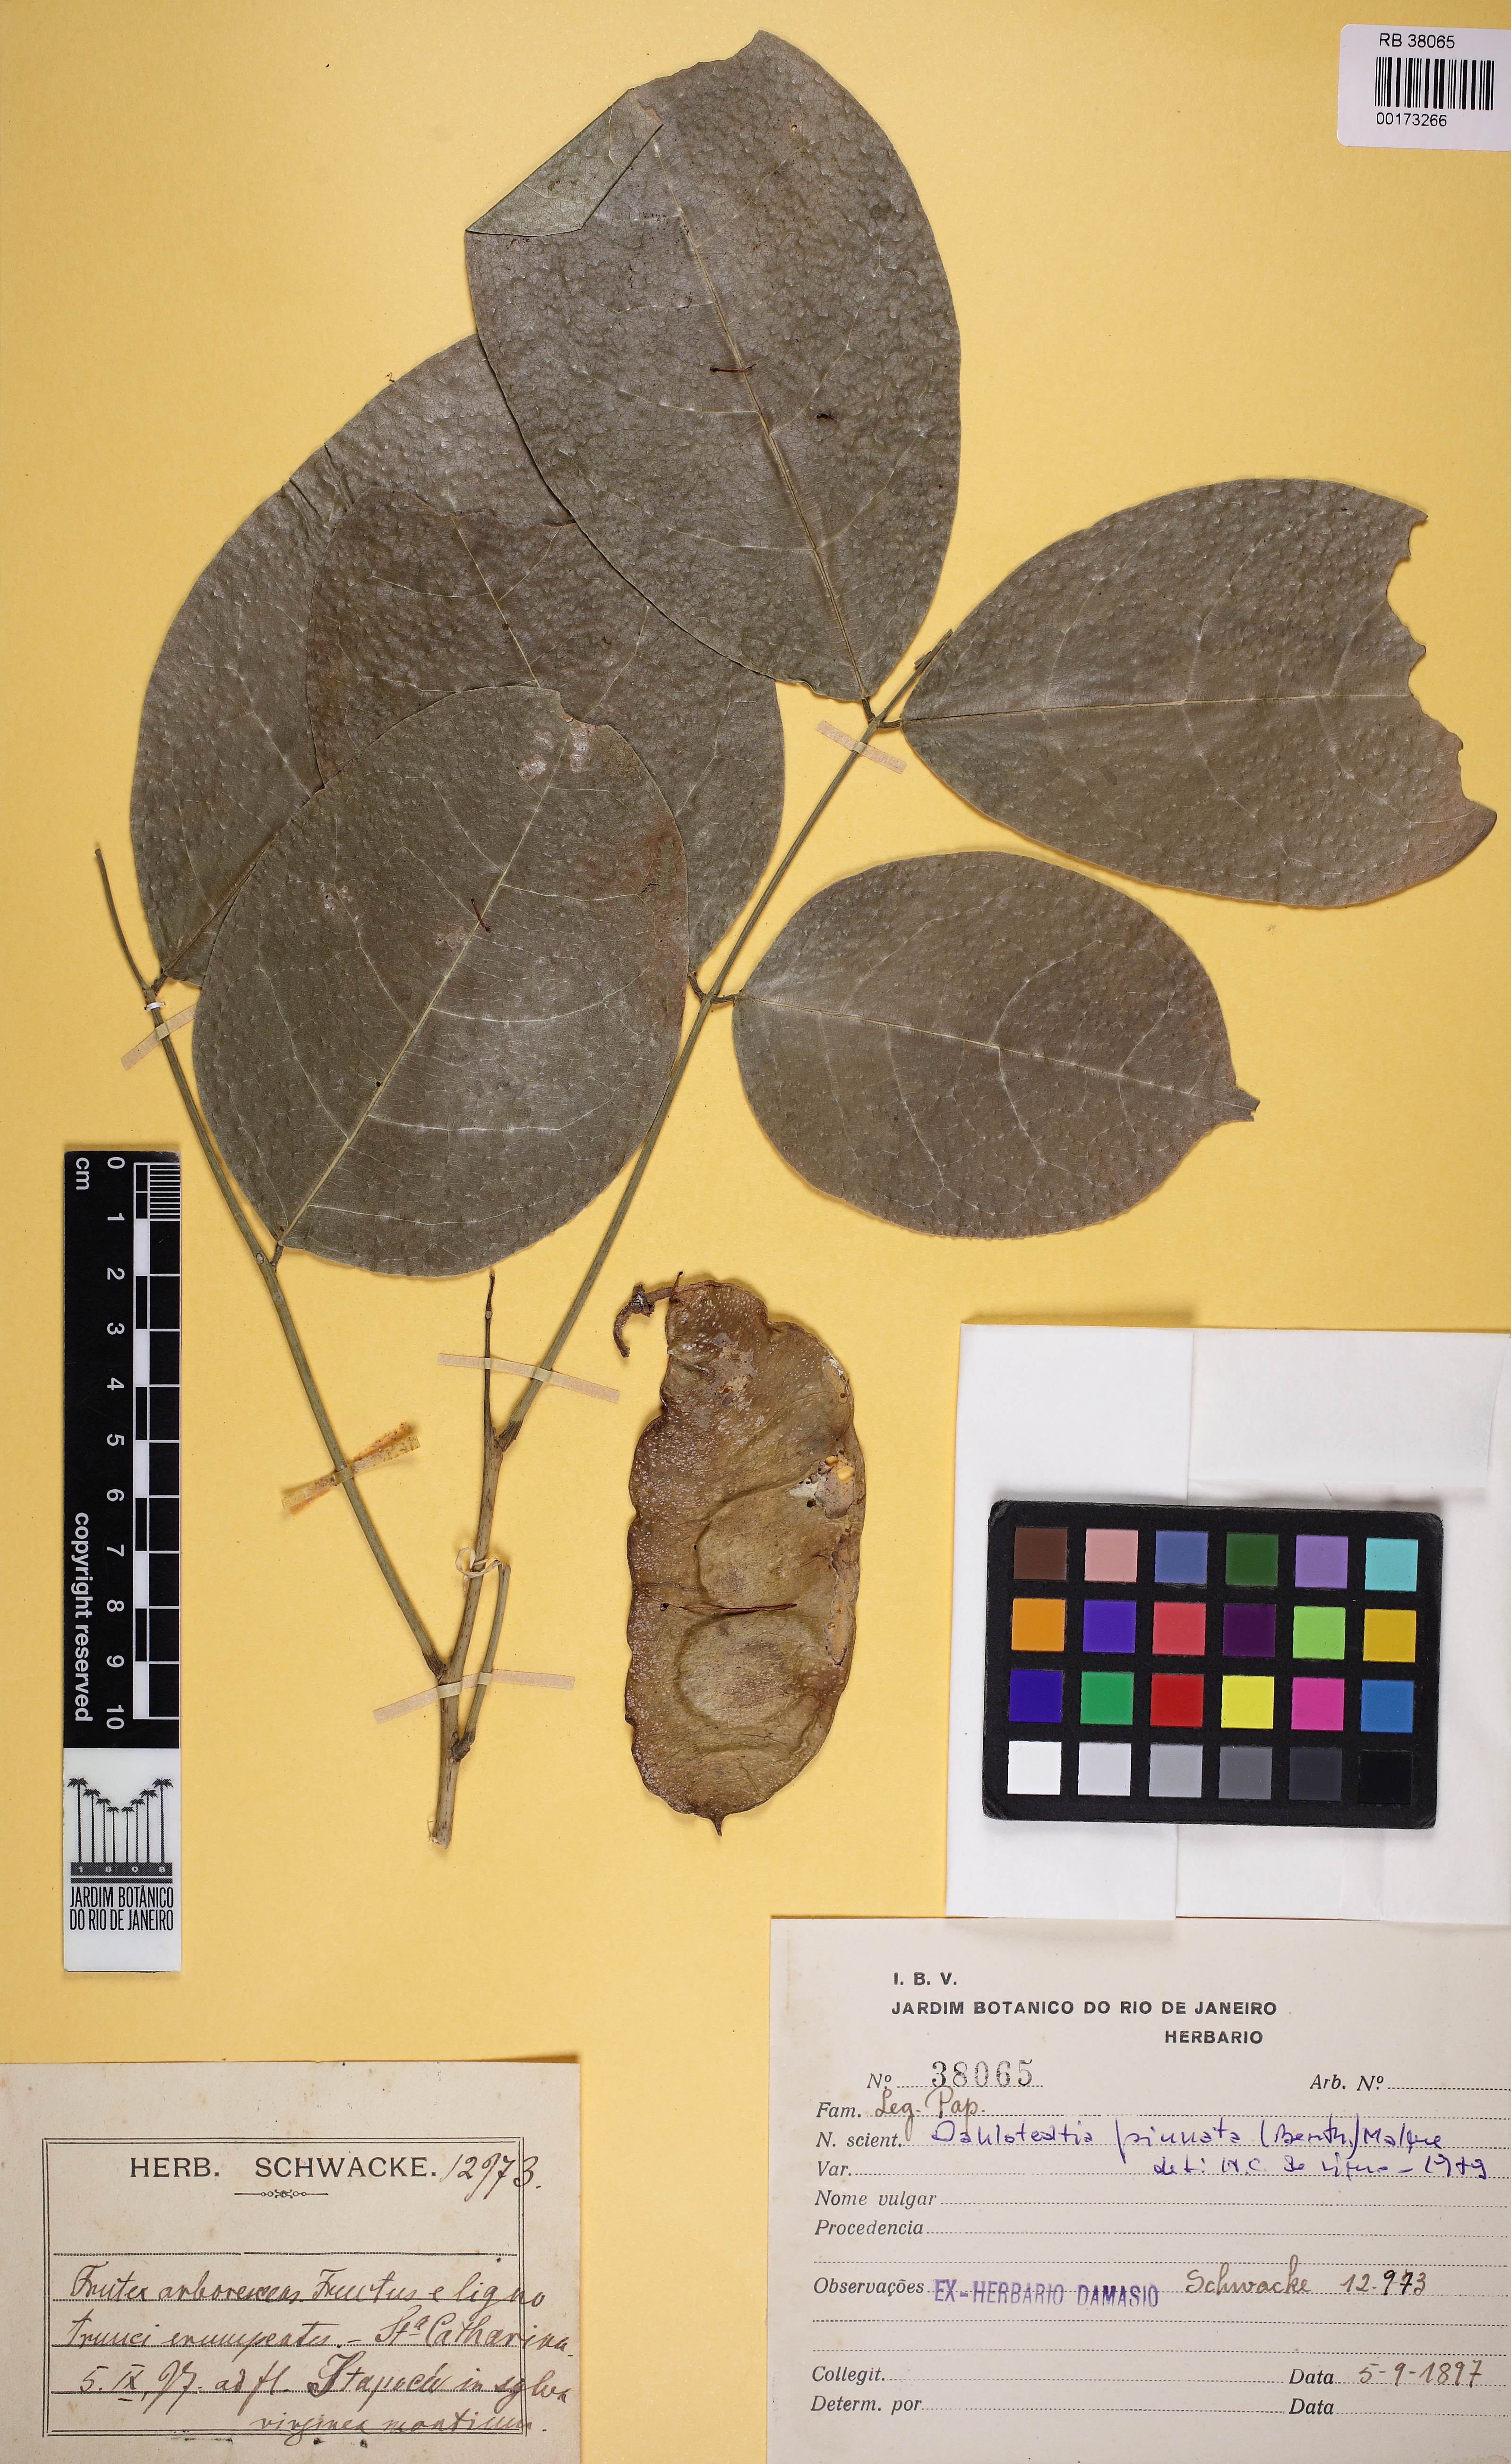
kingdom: Plantae
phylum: Tracheophyta
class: Magnoliopsida
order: Fabales
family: Fabaceae
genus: Dahlstedtia
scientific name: Dahlstedtia pinnata
